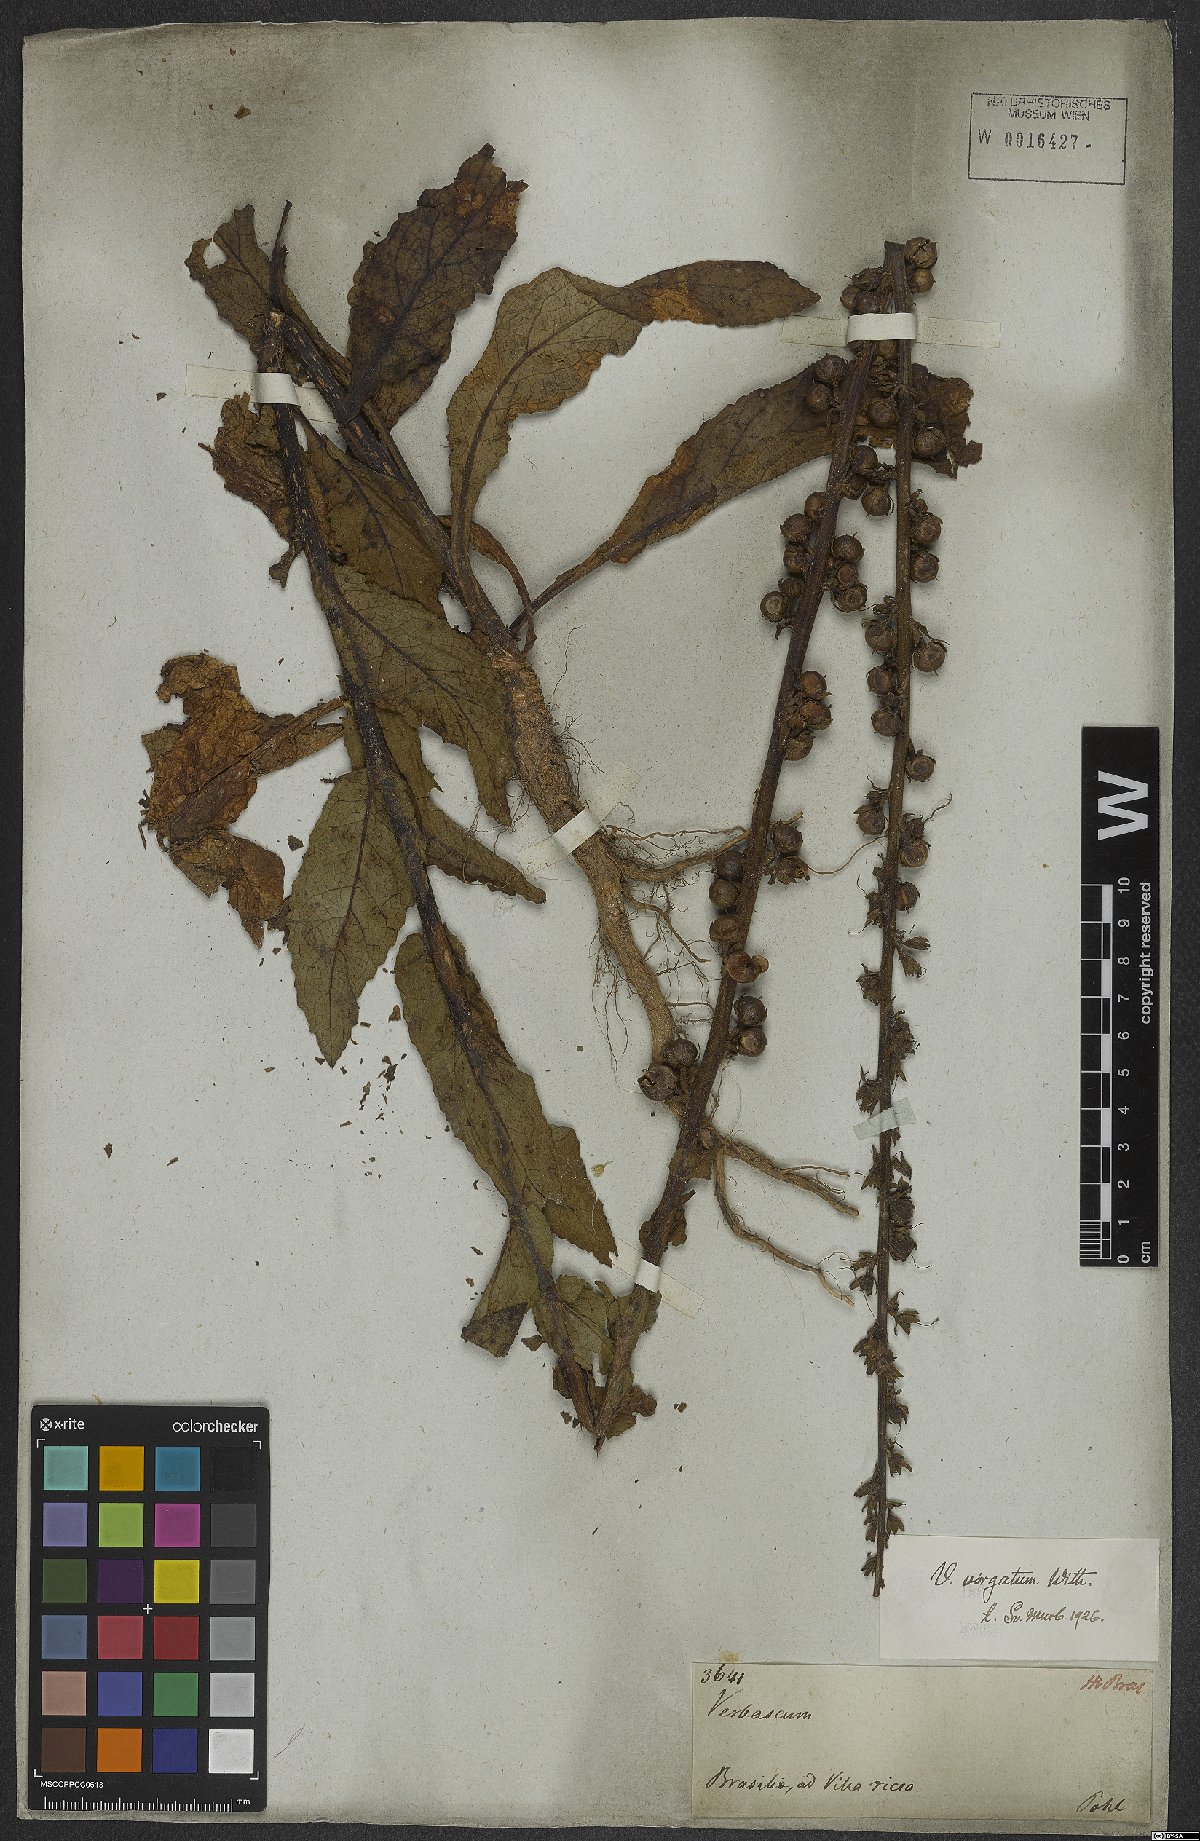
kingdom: Plantae
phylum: Tracheophyta
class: Magnoliopsida
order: Lamiales
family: Scrophulariaceae
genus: Verbascum
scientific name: Verbascum virgatum
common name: Twiggy mullein
